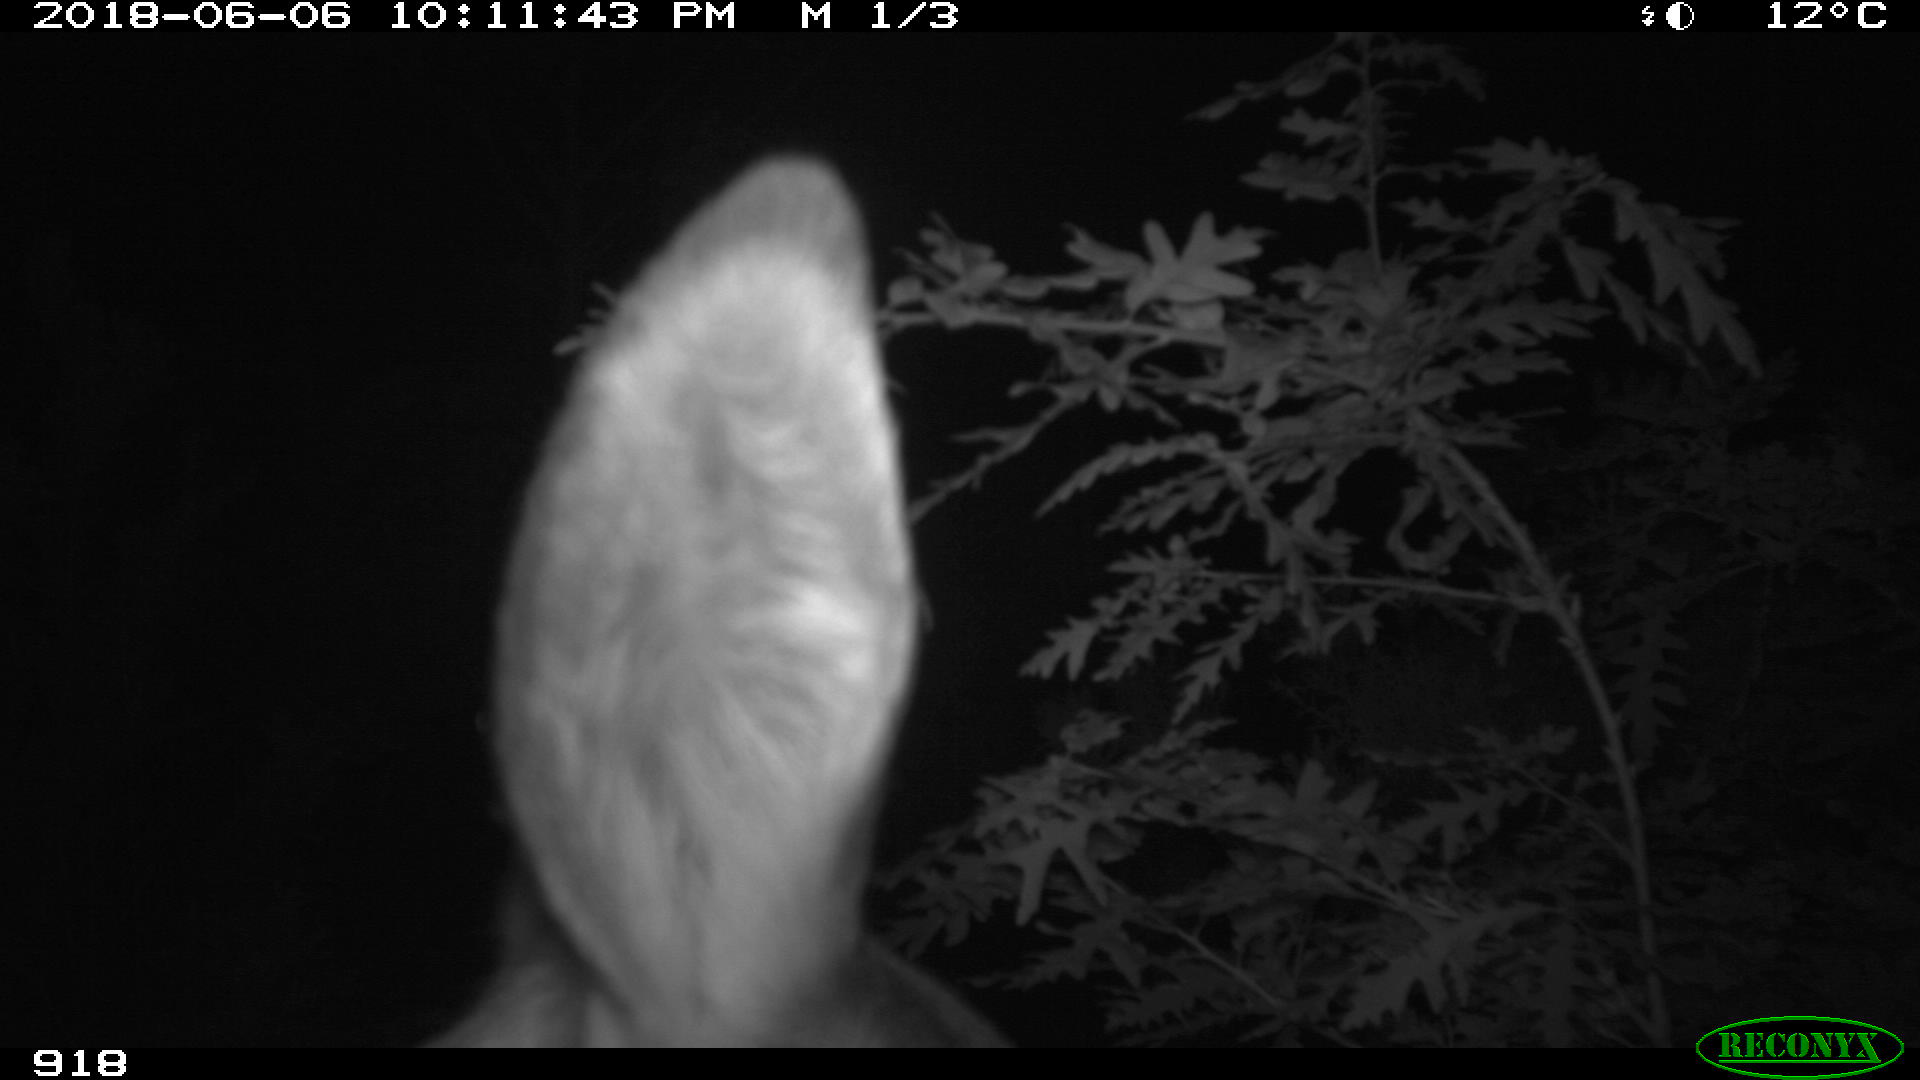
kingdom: Animalia
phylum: Chordata
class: Mammalia
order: Artiodactyla
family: Cervidae
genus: Capreolus
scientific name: Capreolus capreolus
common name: Western roe deer
